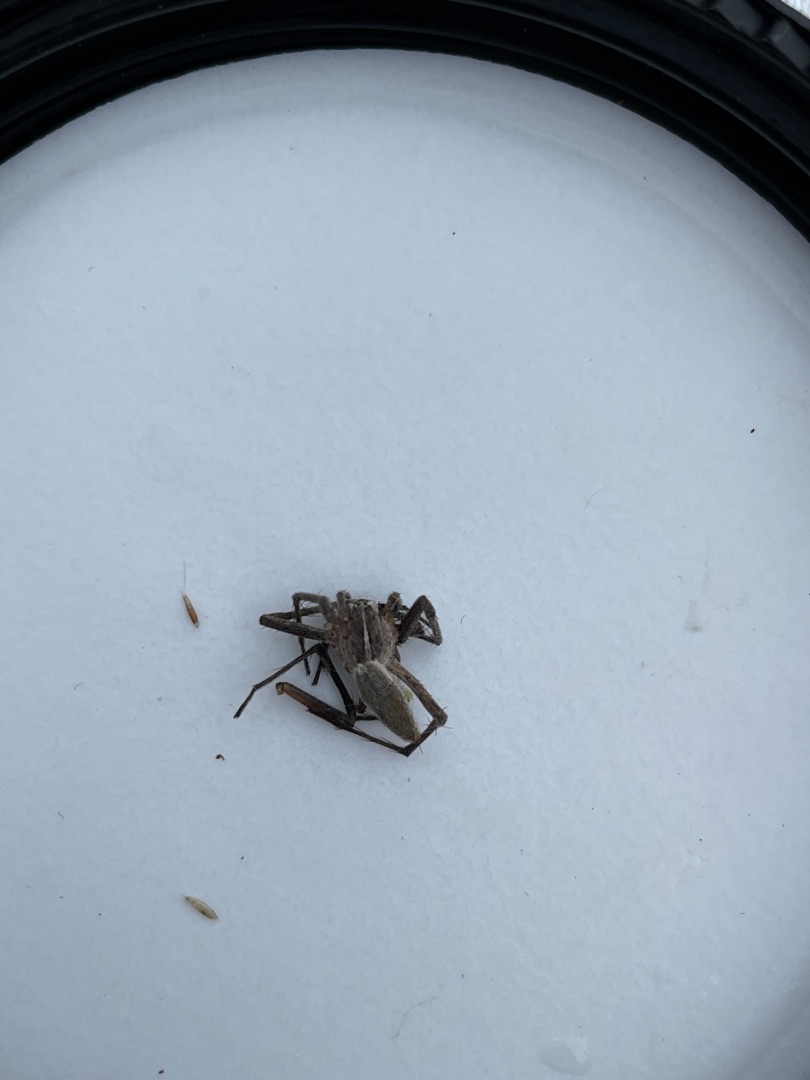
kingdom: Animalia
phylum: Arthropoda
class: Arachnida
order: Araneae
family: Pisauridae
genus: Pisaura
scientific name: Pisaura mirabilis
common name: Almindelig rovedderkop
